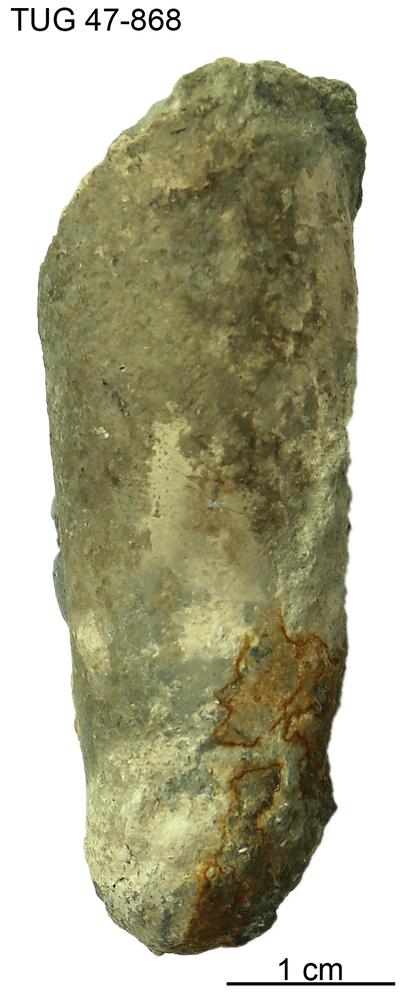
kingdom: Animalia
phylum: Mollusca
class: Cephalopoda
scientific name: Cephalopoda
